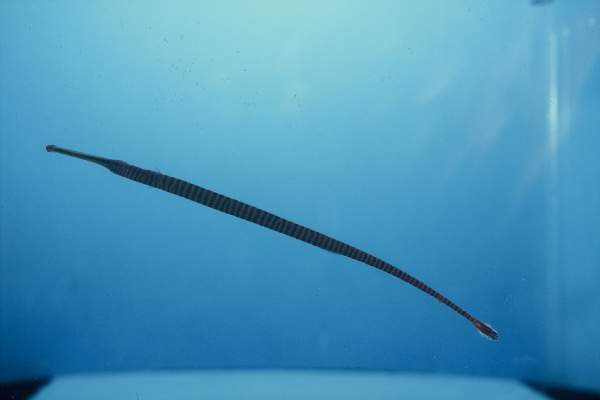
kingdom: Animalia
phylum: Chordata
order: Syngnathiformes
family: Syngnathidae
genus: Dunckerocampus
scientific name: Dunckerocampus multiannulatus
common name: Many-banded pipefish
